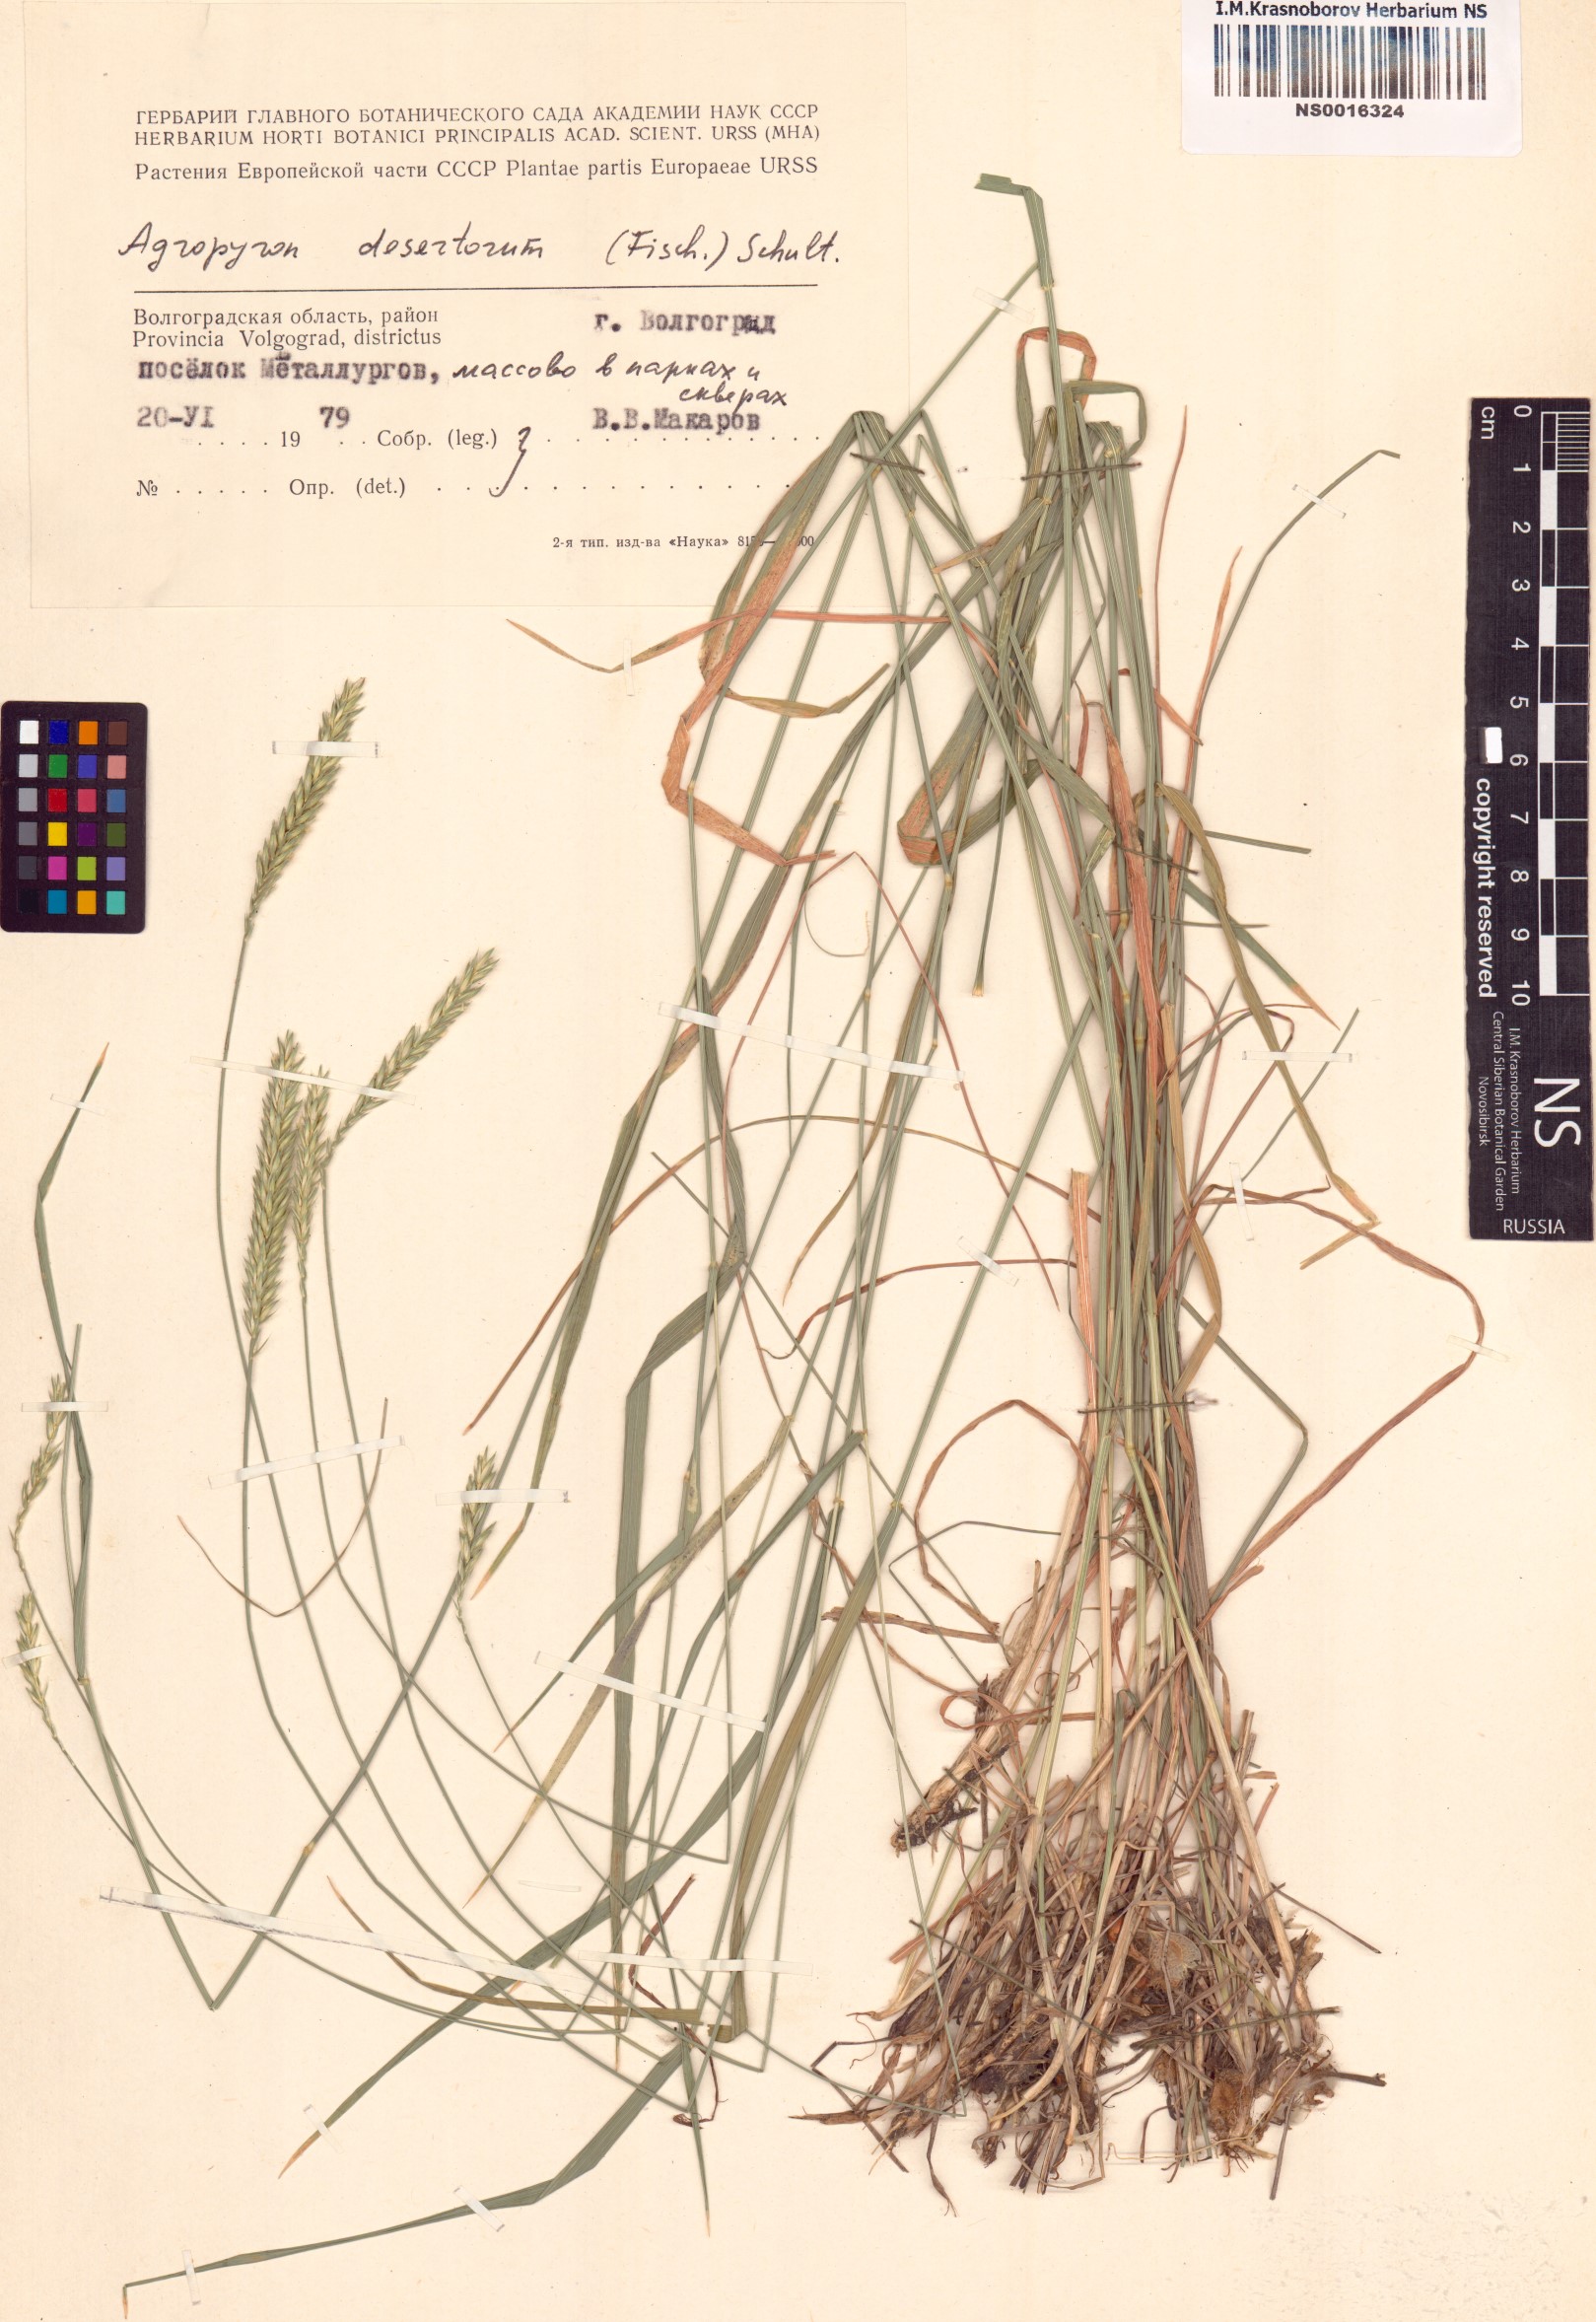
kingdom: Plantae
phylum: Tracheophyta
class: Liliopsida
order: Poales
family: Poaceae
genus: Agropyron
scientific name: Agropyron desertorum
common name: Desert wheatgrass
